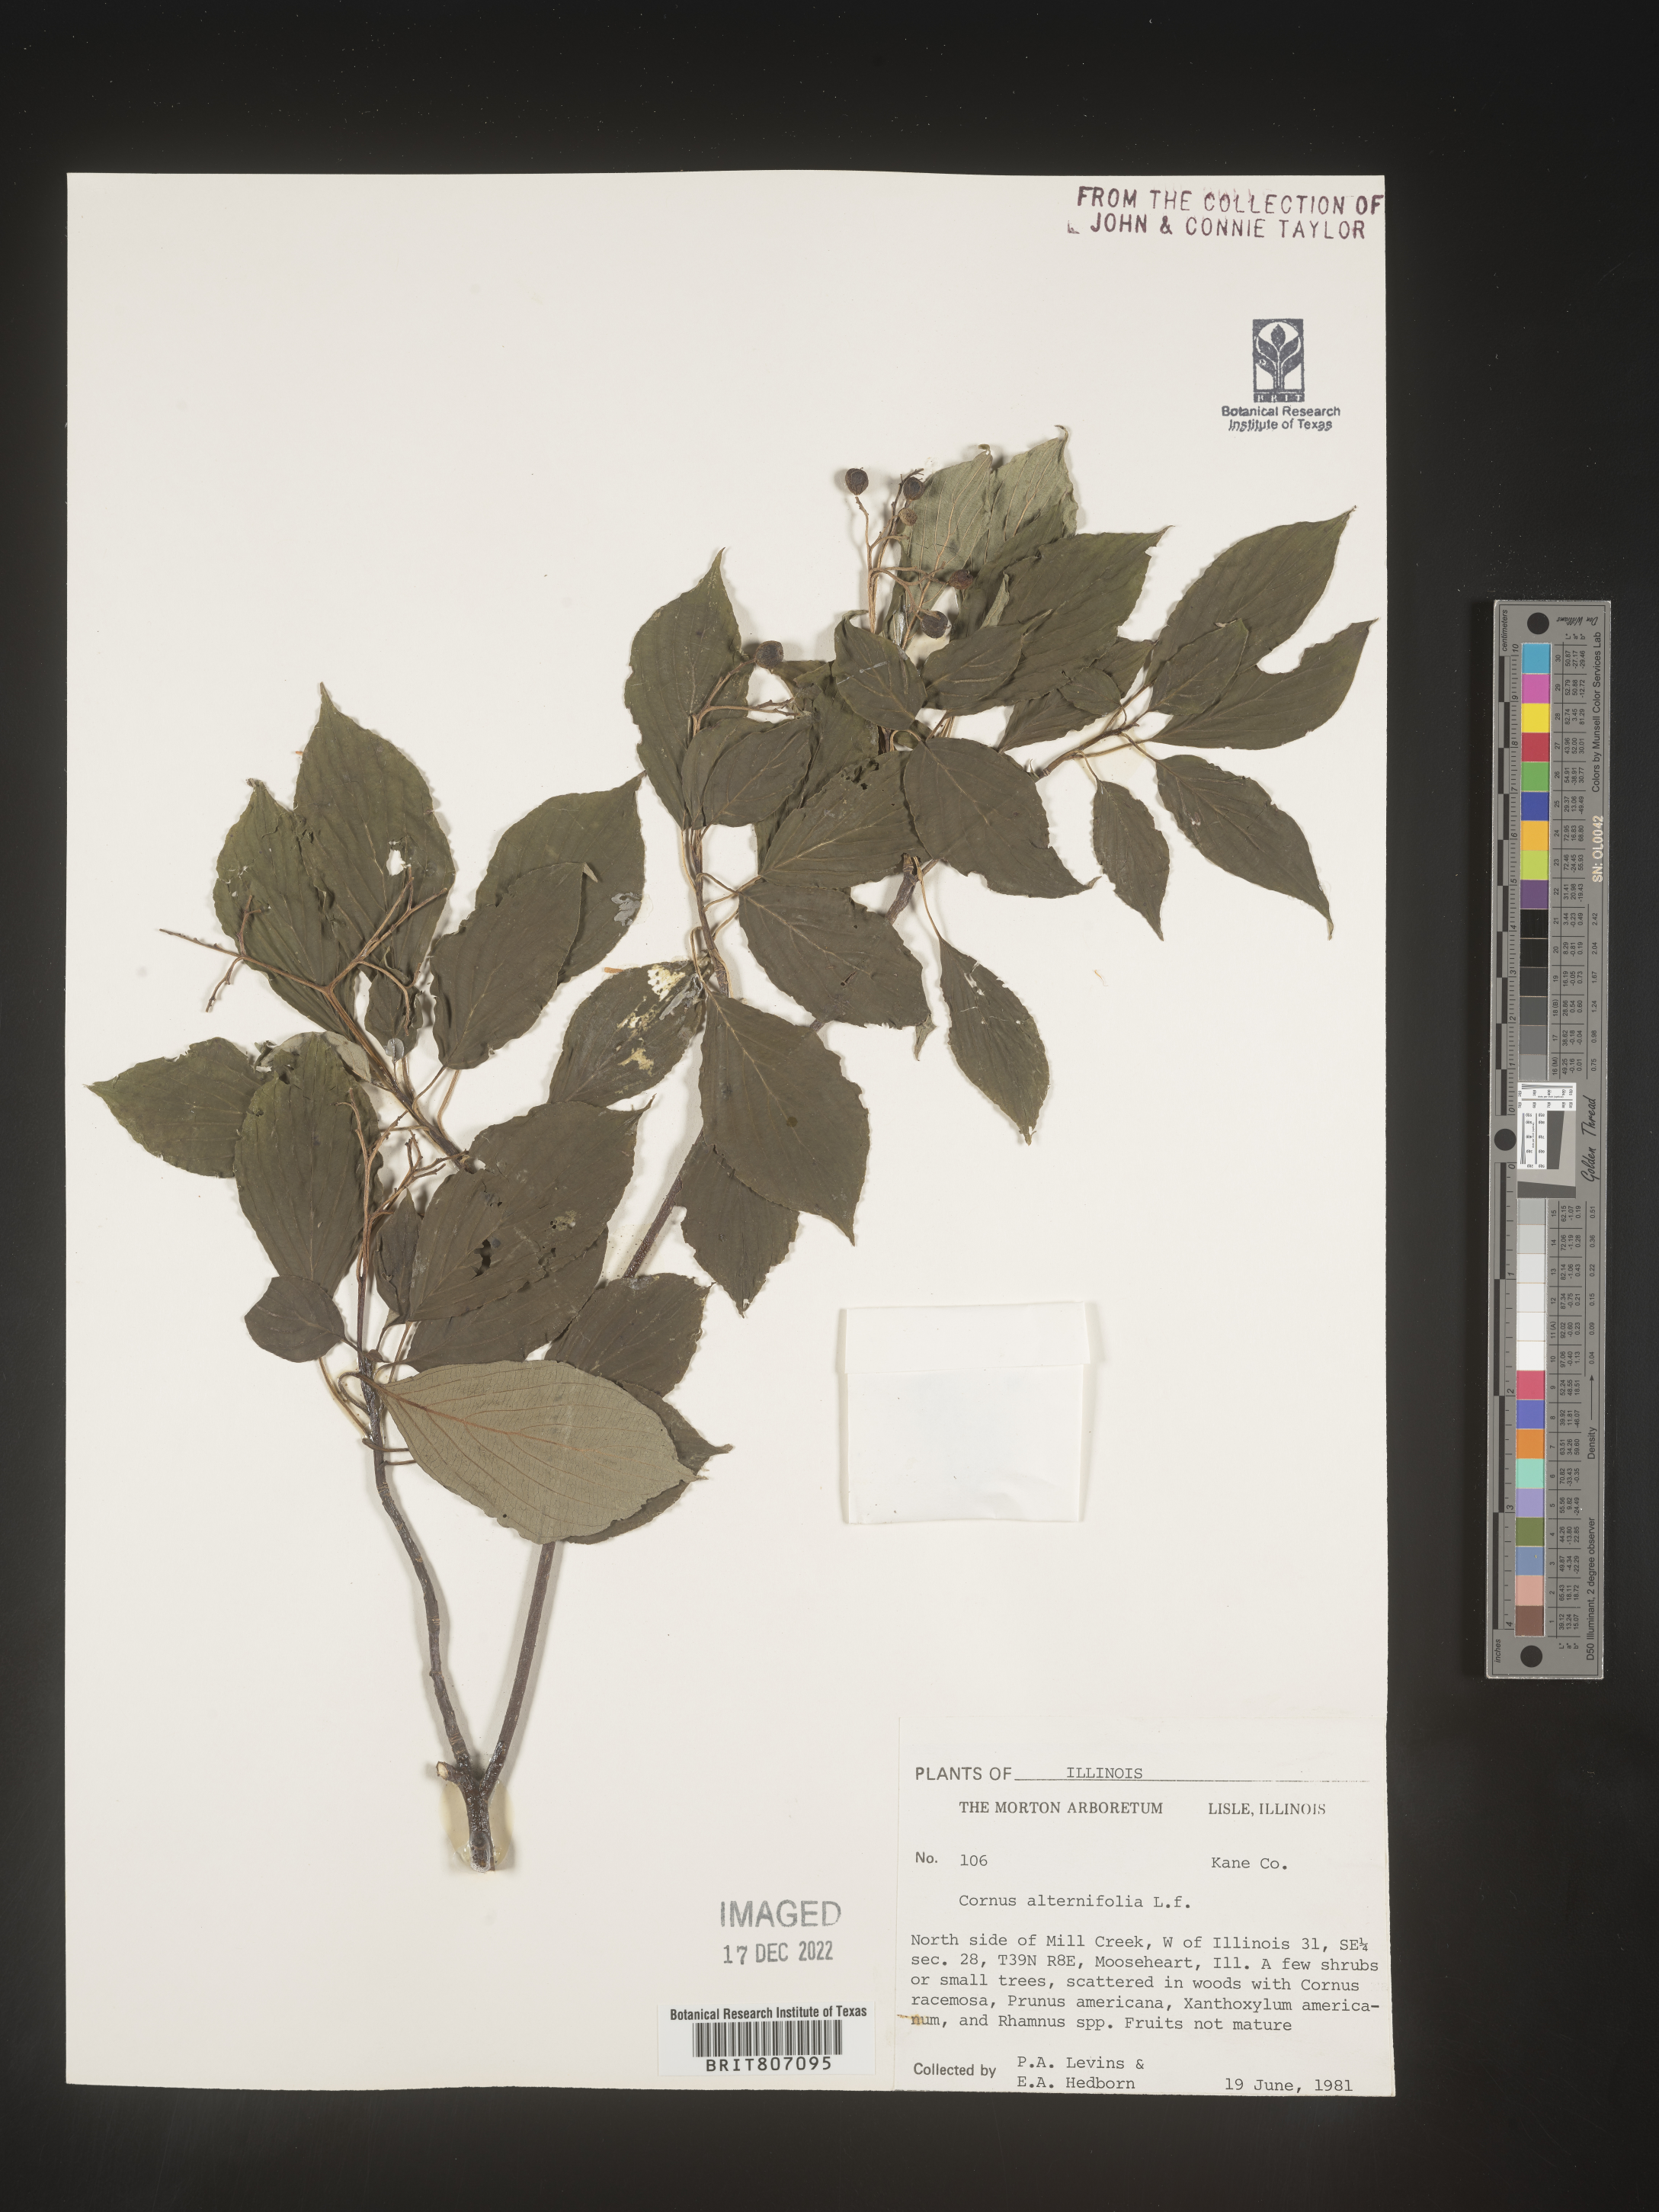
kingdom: Plantae
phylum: Tracheophyta
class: Magnoliopsida
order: Cornales
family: Cornaceae
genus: Cornus
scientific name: Cornus alternifolia
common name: Pagoda dogwood
